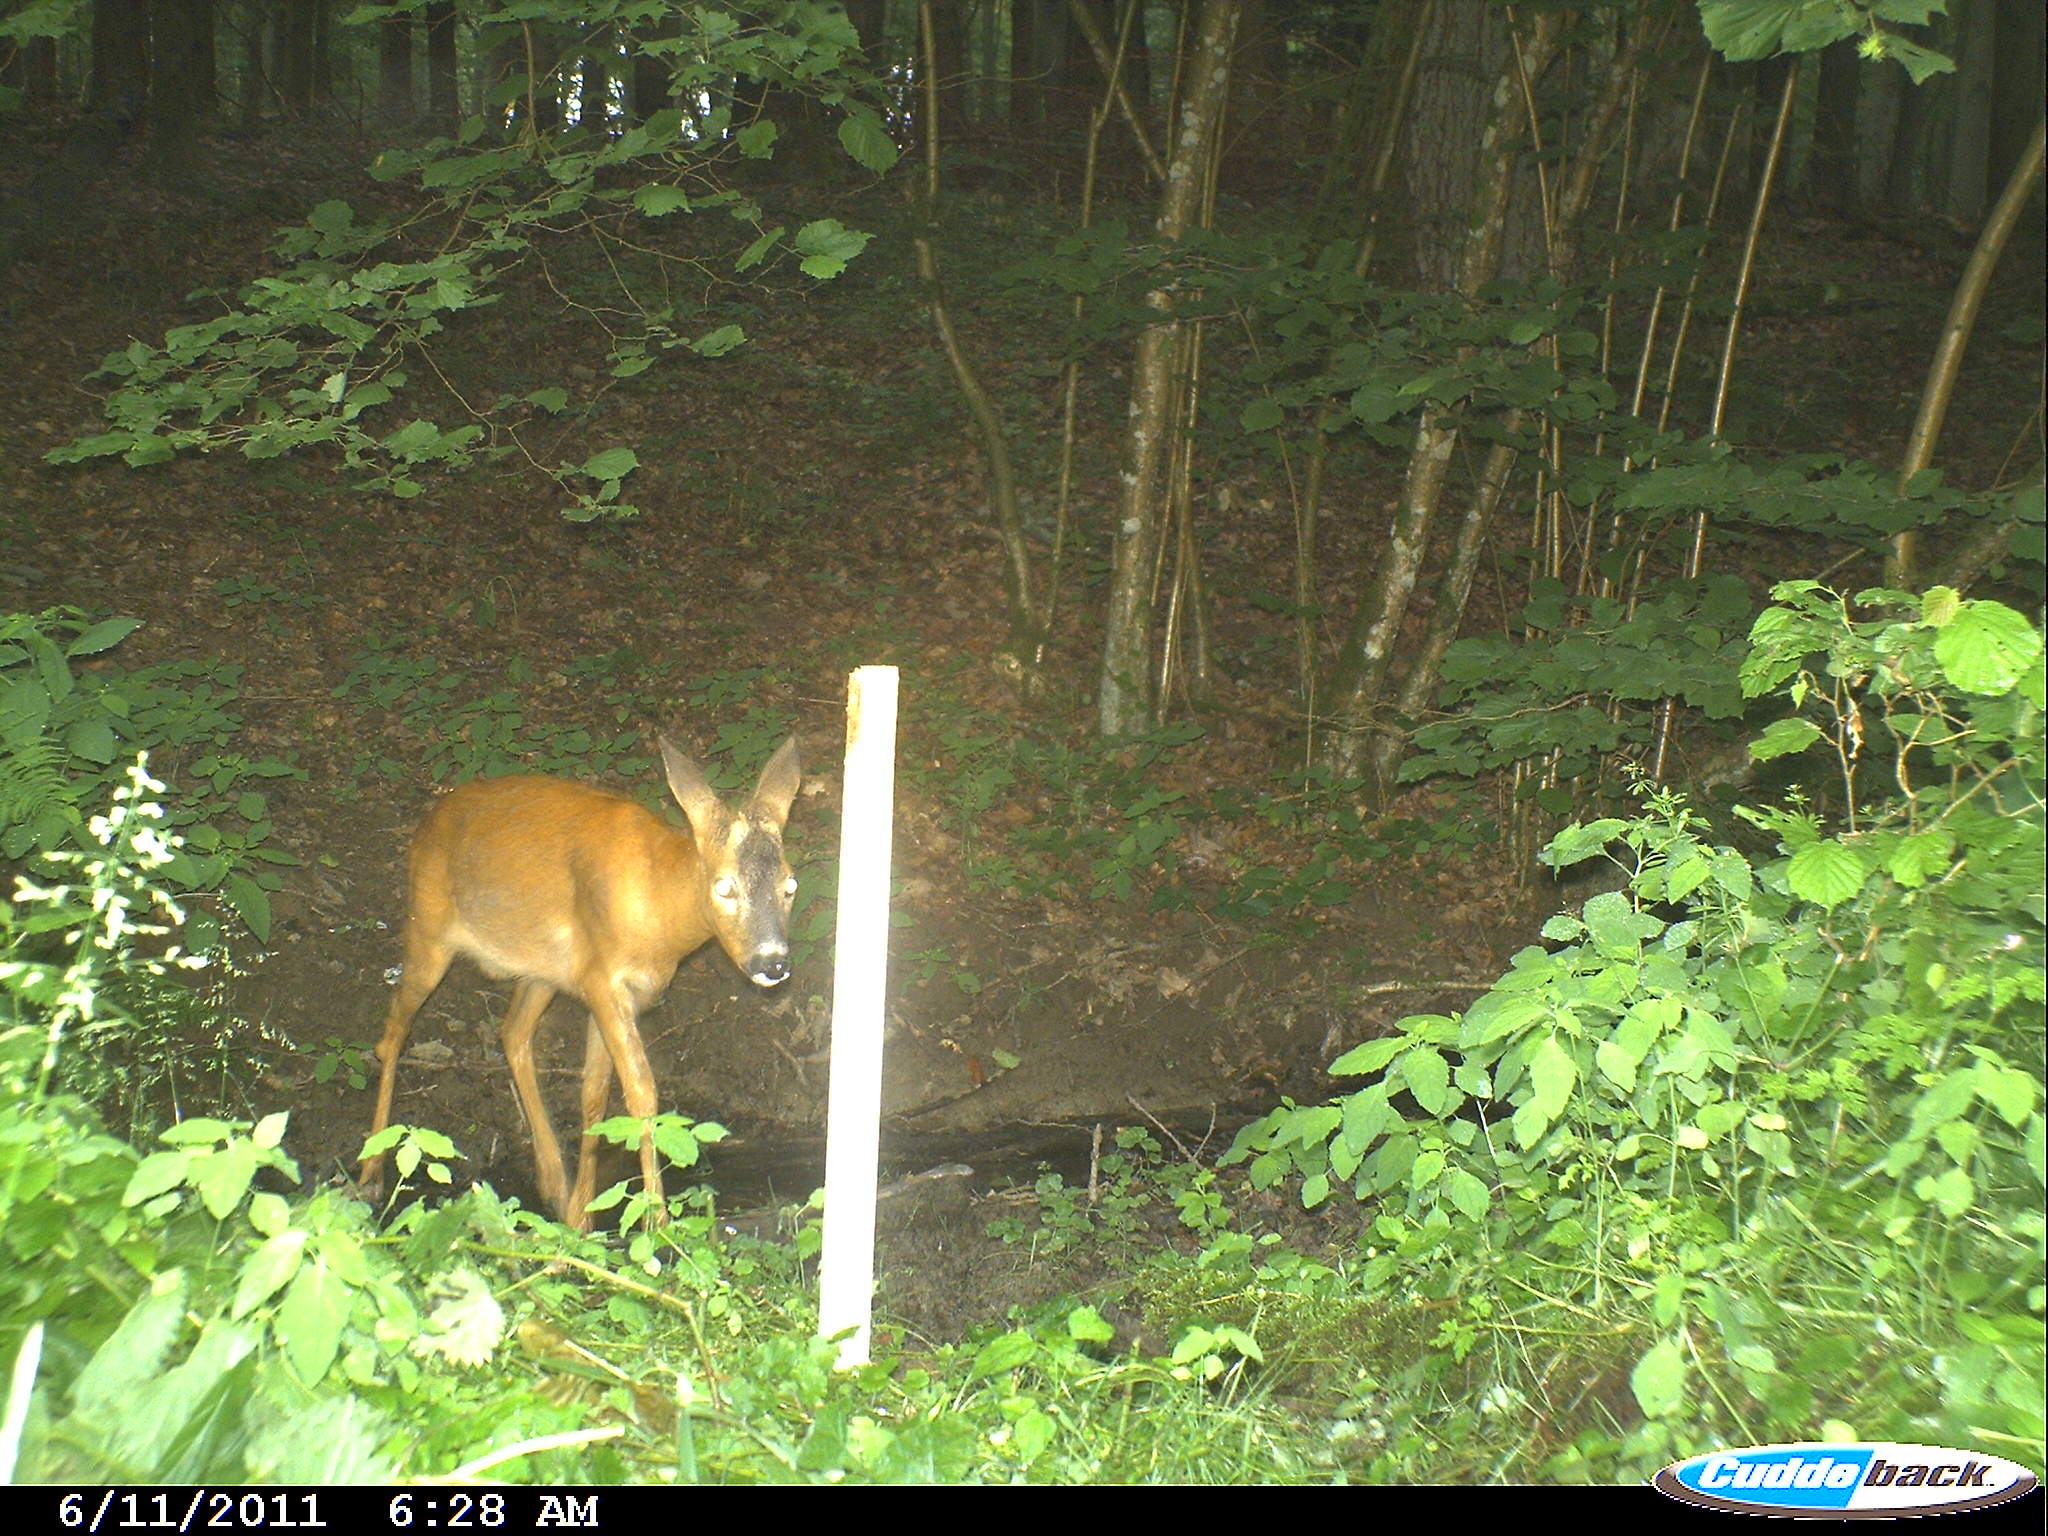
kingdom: Animalia
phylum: Chordata
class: Mammalia
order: Artiodactyla
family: Cervidae
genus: Capreolus
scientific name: Capreolus capreolus
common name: Western roe deer
